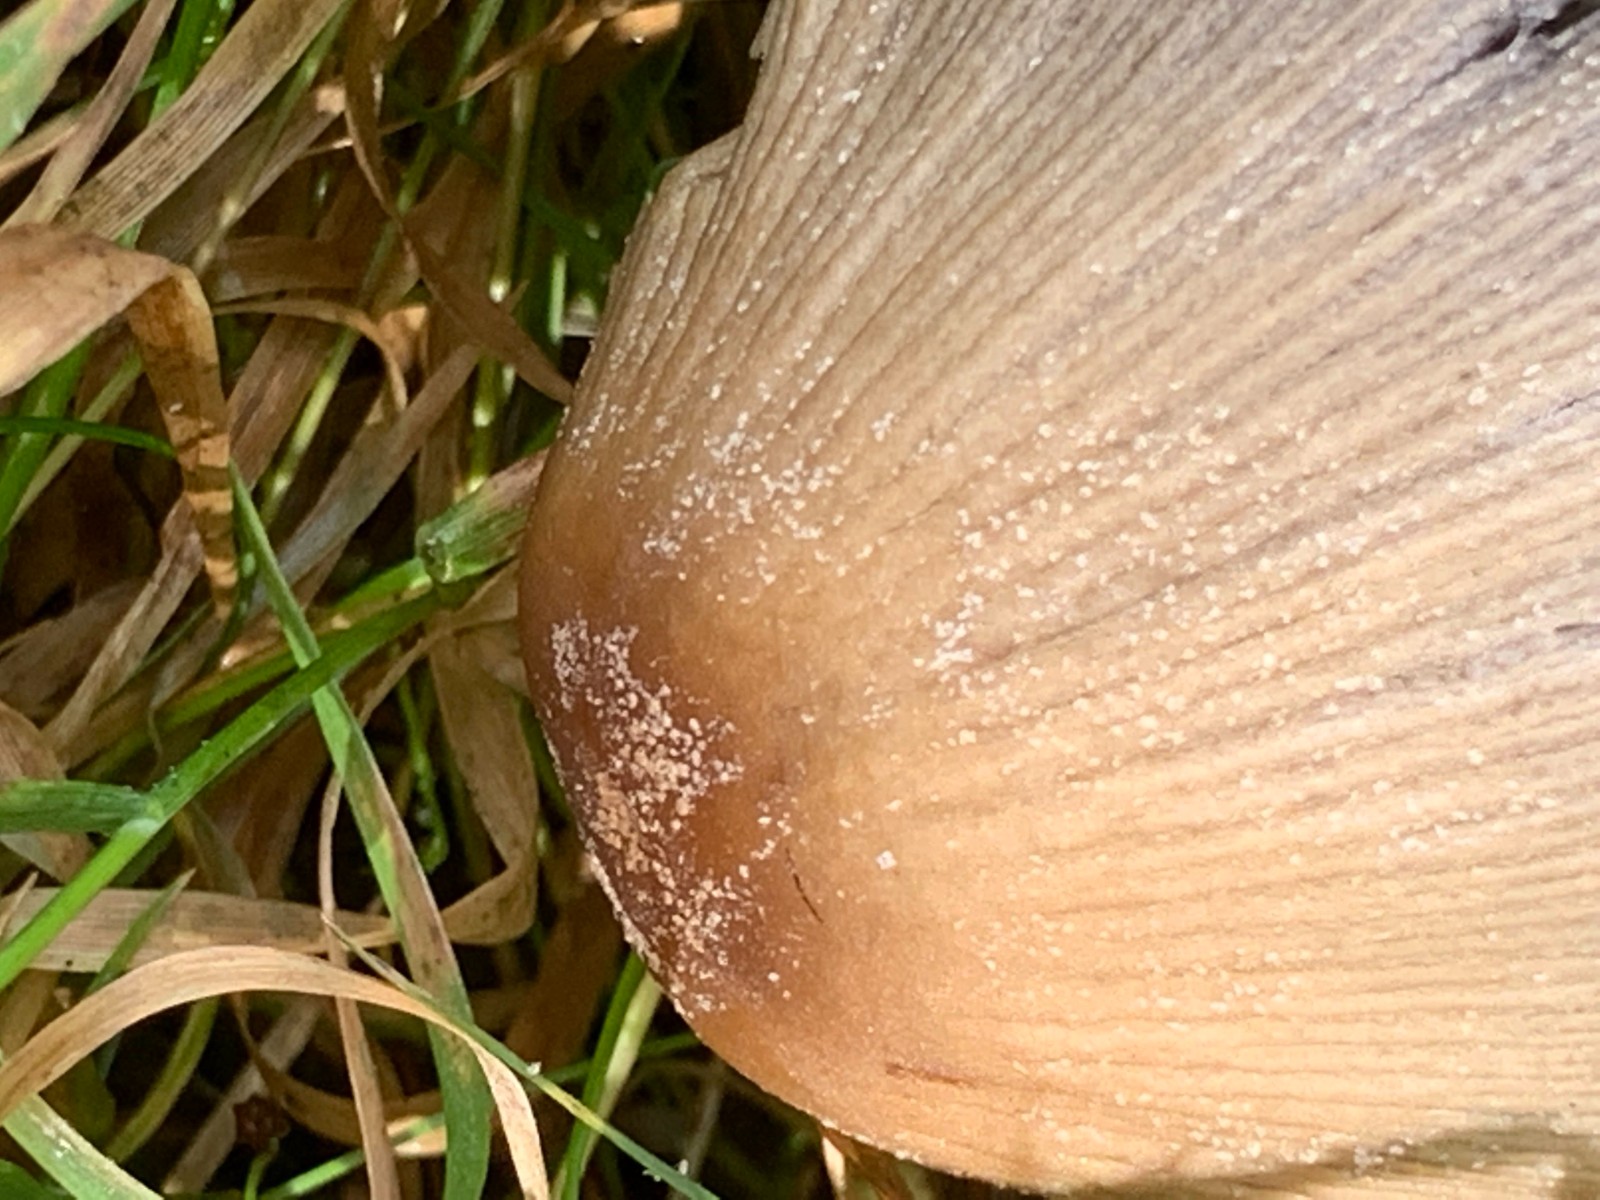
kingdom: Fungi
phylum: Basidiomycota
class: Agaricomycetes
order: Agaricales
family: Psathyrellaceae
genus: Coprinellus
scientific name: Coprinellus micaceus
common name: glimmer-blækhat
